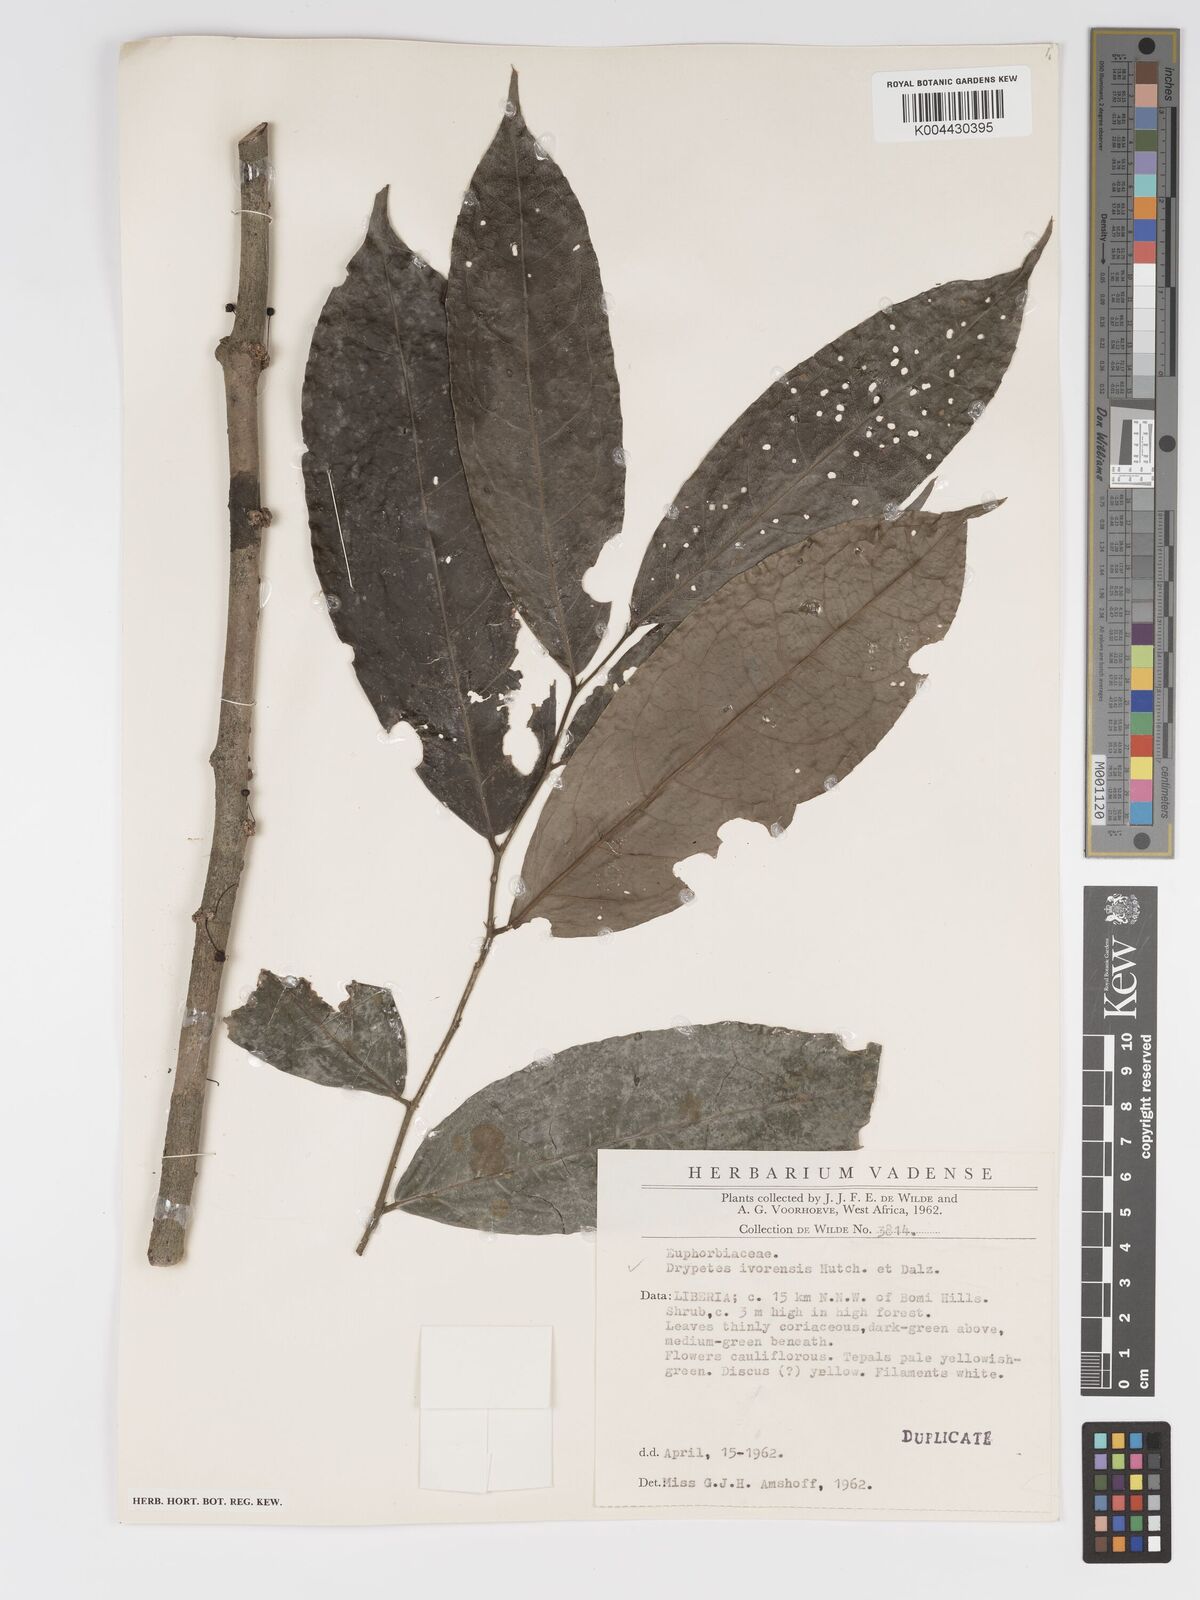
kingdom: Plantae
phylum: Tracheophyta
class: Magnoliopsida
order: Malpighiales
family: Putranjivaceae
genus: Drypetes
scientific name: Drypetes ivorensis
